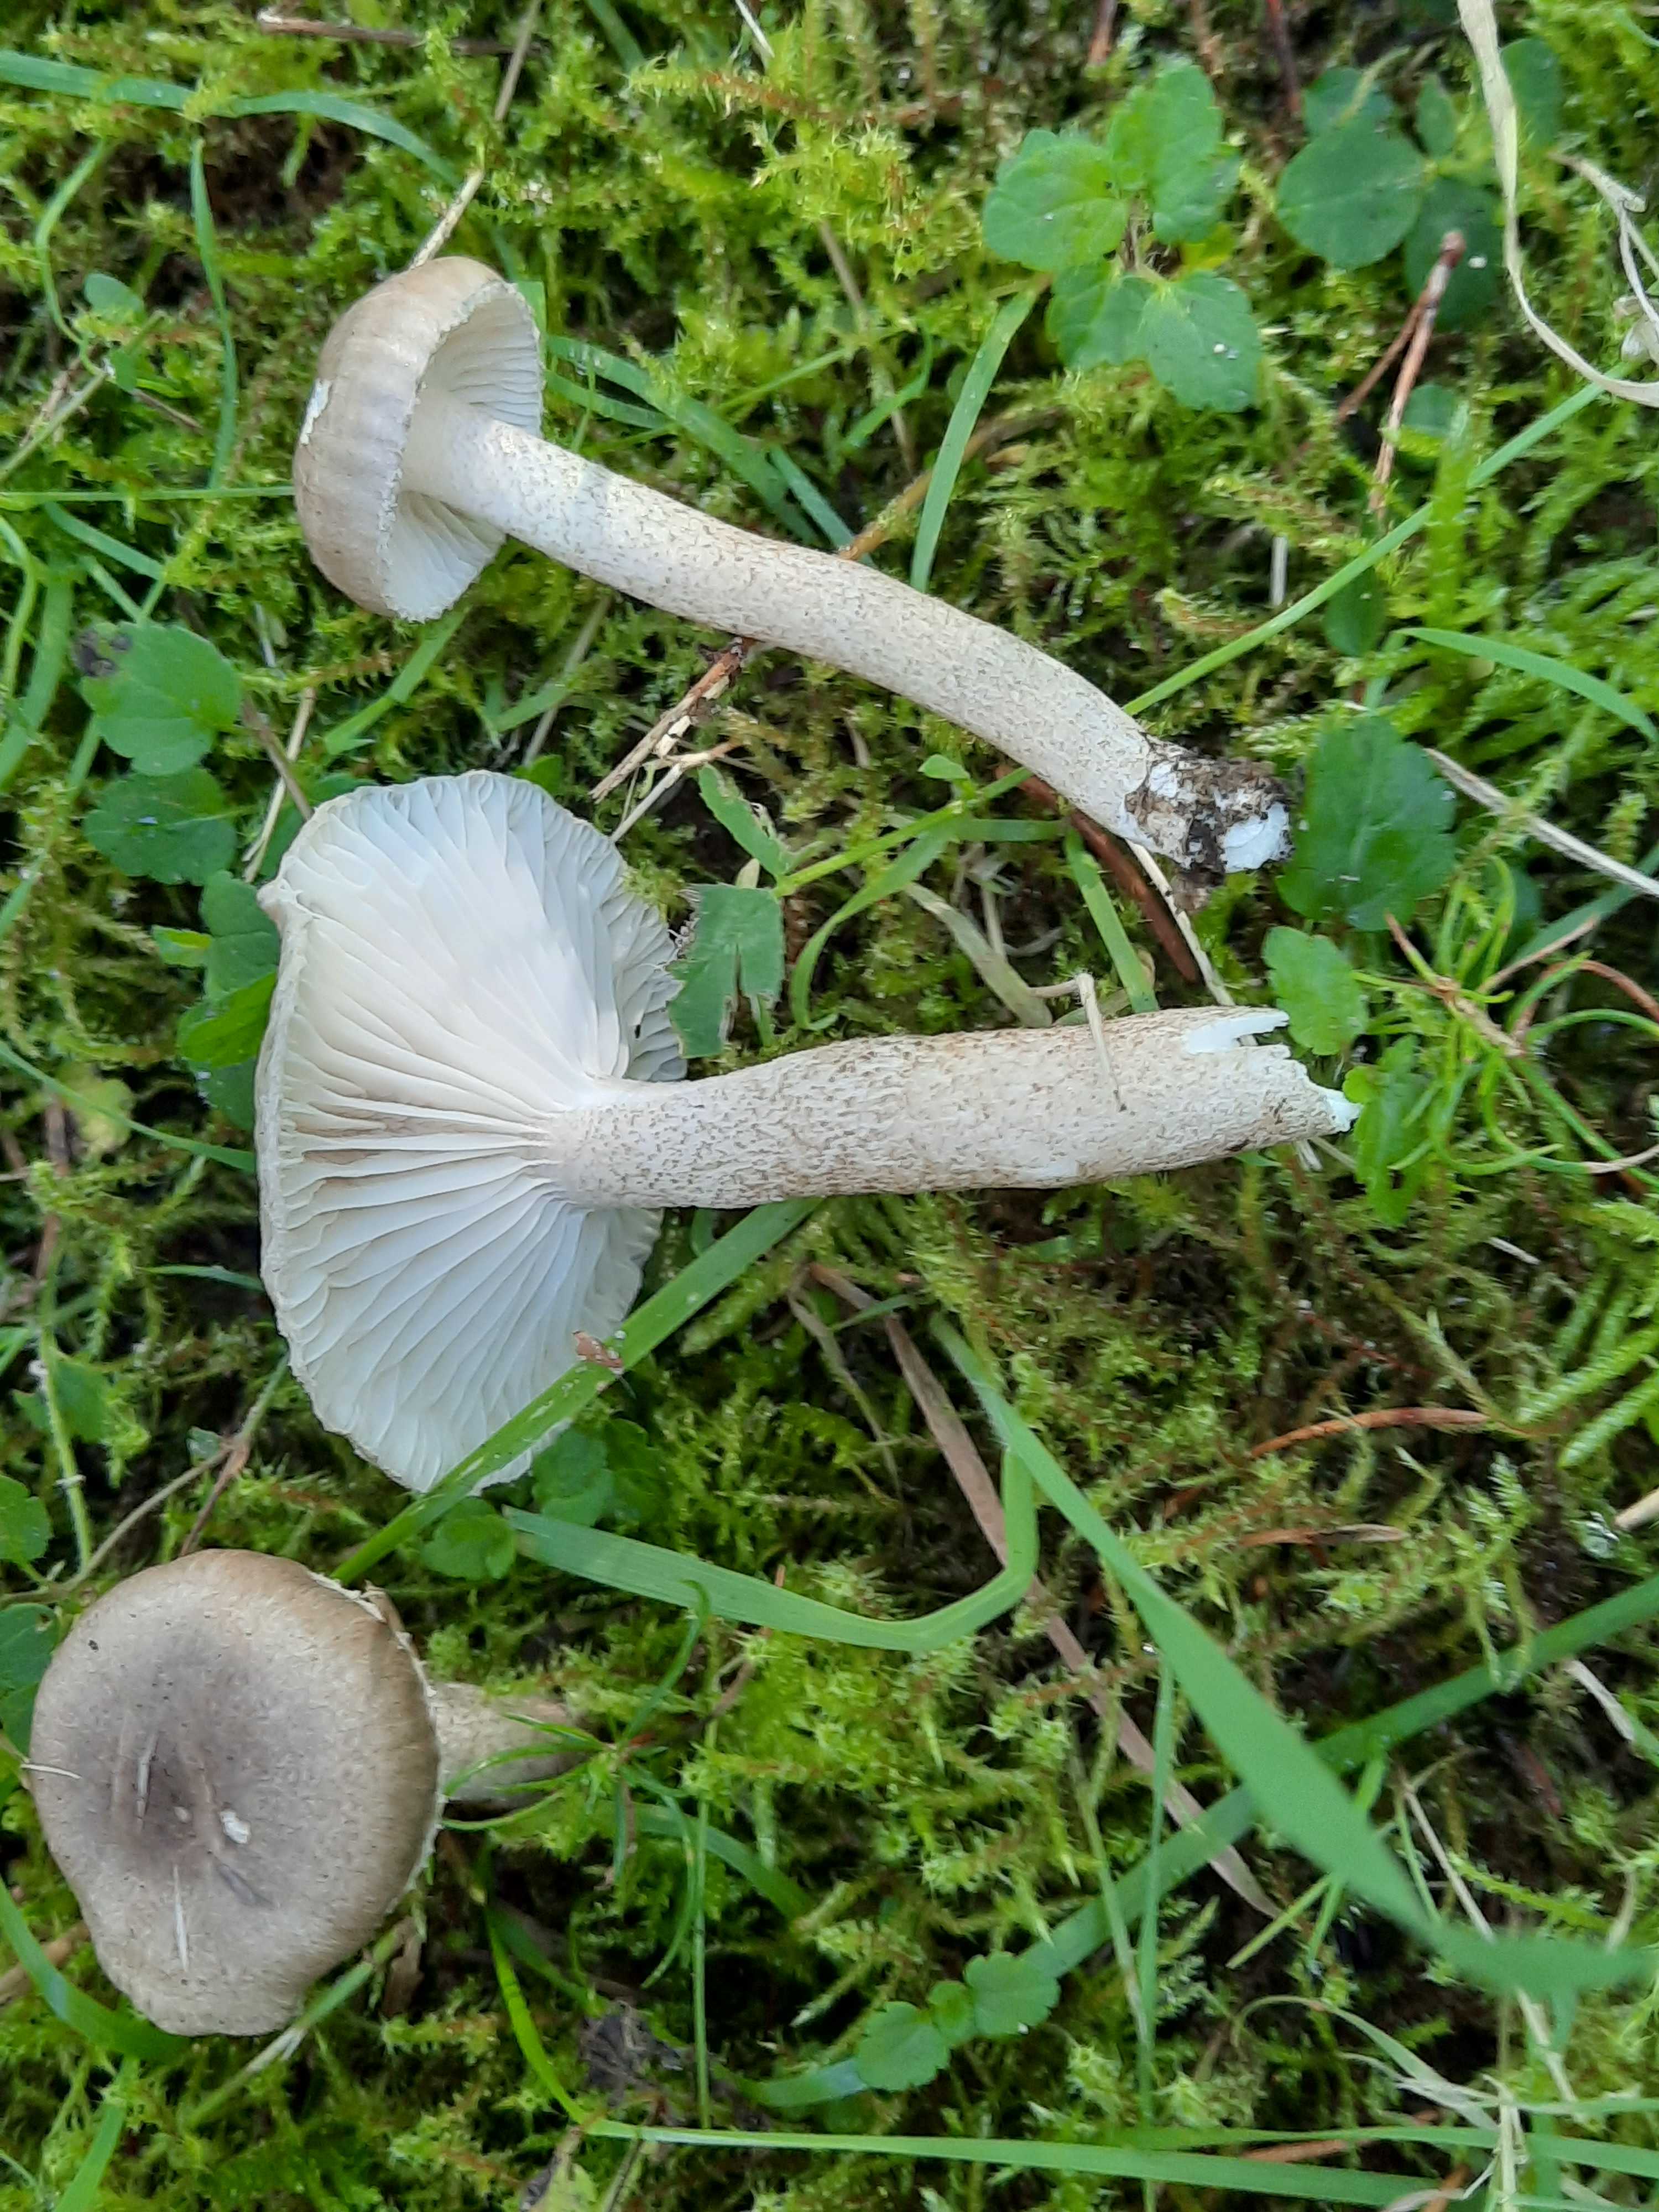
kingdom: Fungi
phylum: Basidiomycota
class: Agaricomycetes
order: Agaricales
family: Hygrophoraceae
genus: Hygrophorus
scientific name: Hygrophorus pustulatus
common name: mørkprikket sneglehat
